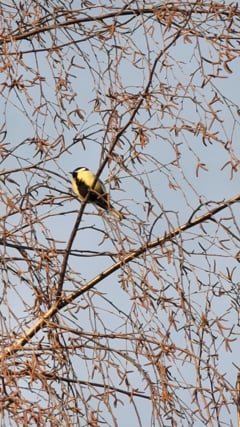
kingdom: Animalia
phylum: Chordata
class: Aves
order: Passeriformes
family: Paridae
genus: Parus
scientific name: Parus major
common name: Great tit
